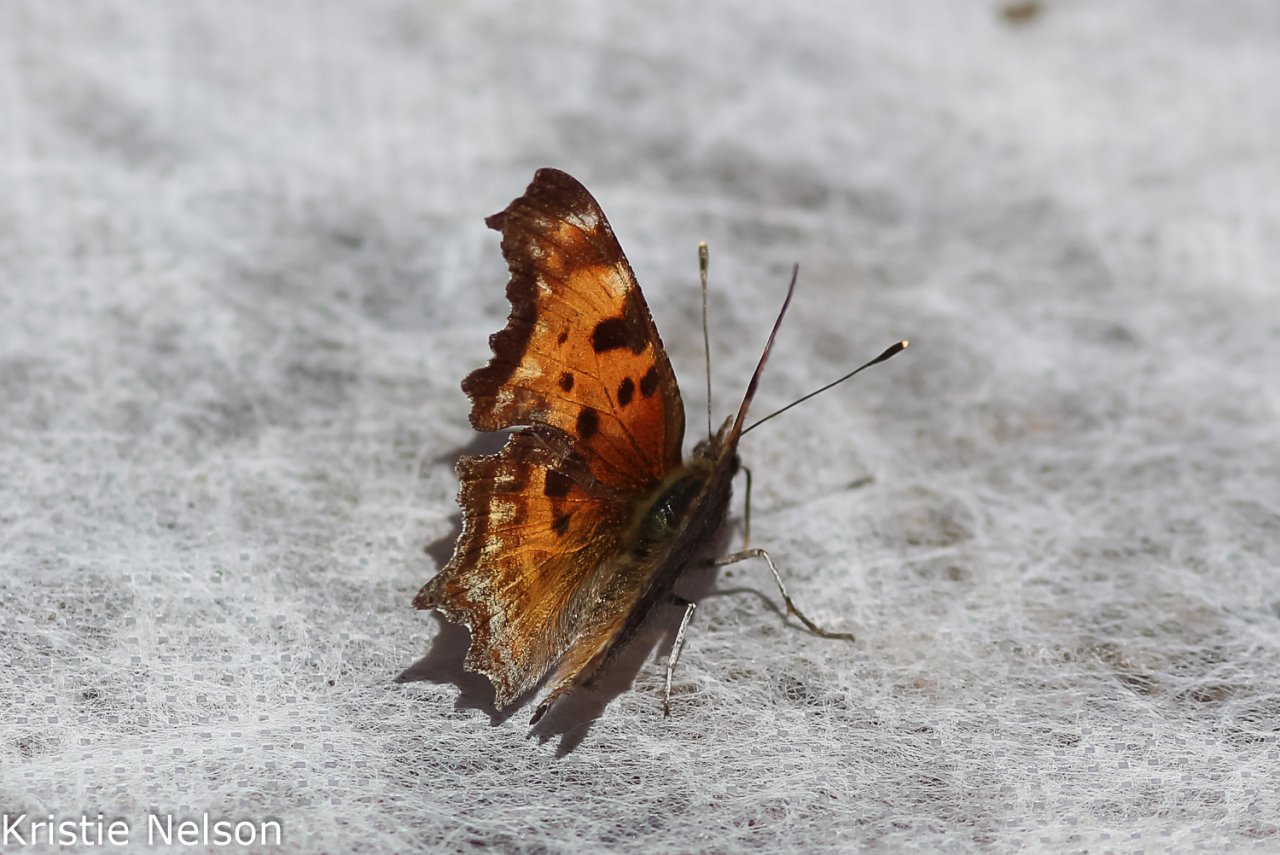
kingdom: Animalia
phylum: Arthropoda
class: Insecta
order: Lepidoptera
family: Nymphalidae
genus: Polygonia
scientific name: Polygonia gracilis
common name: Hoary Comma
